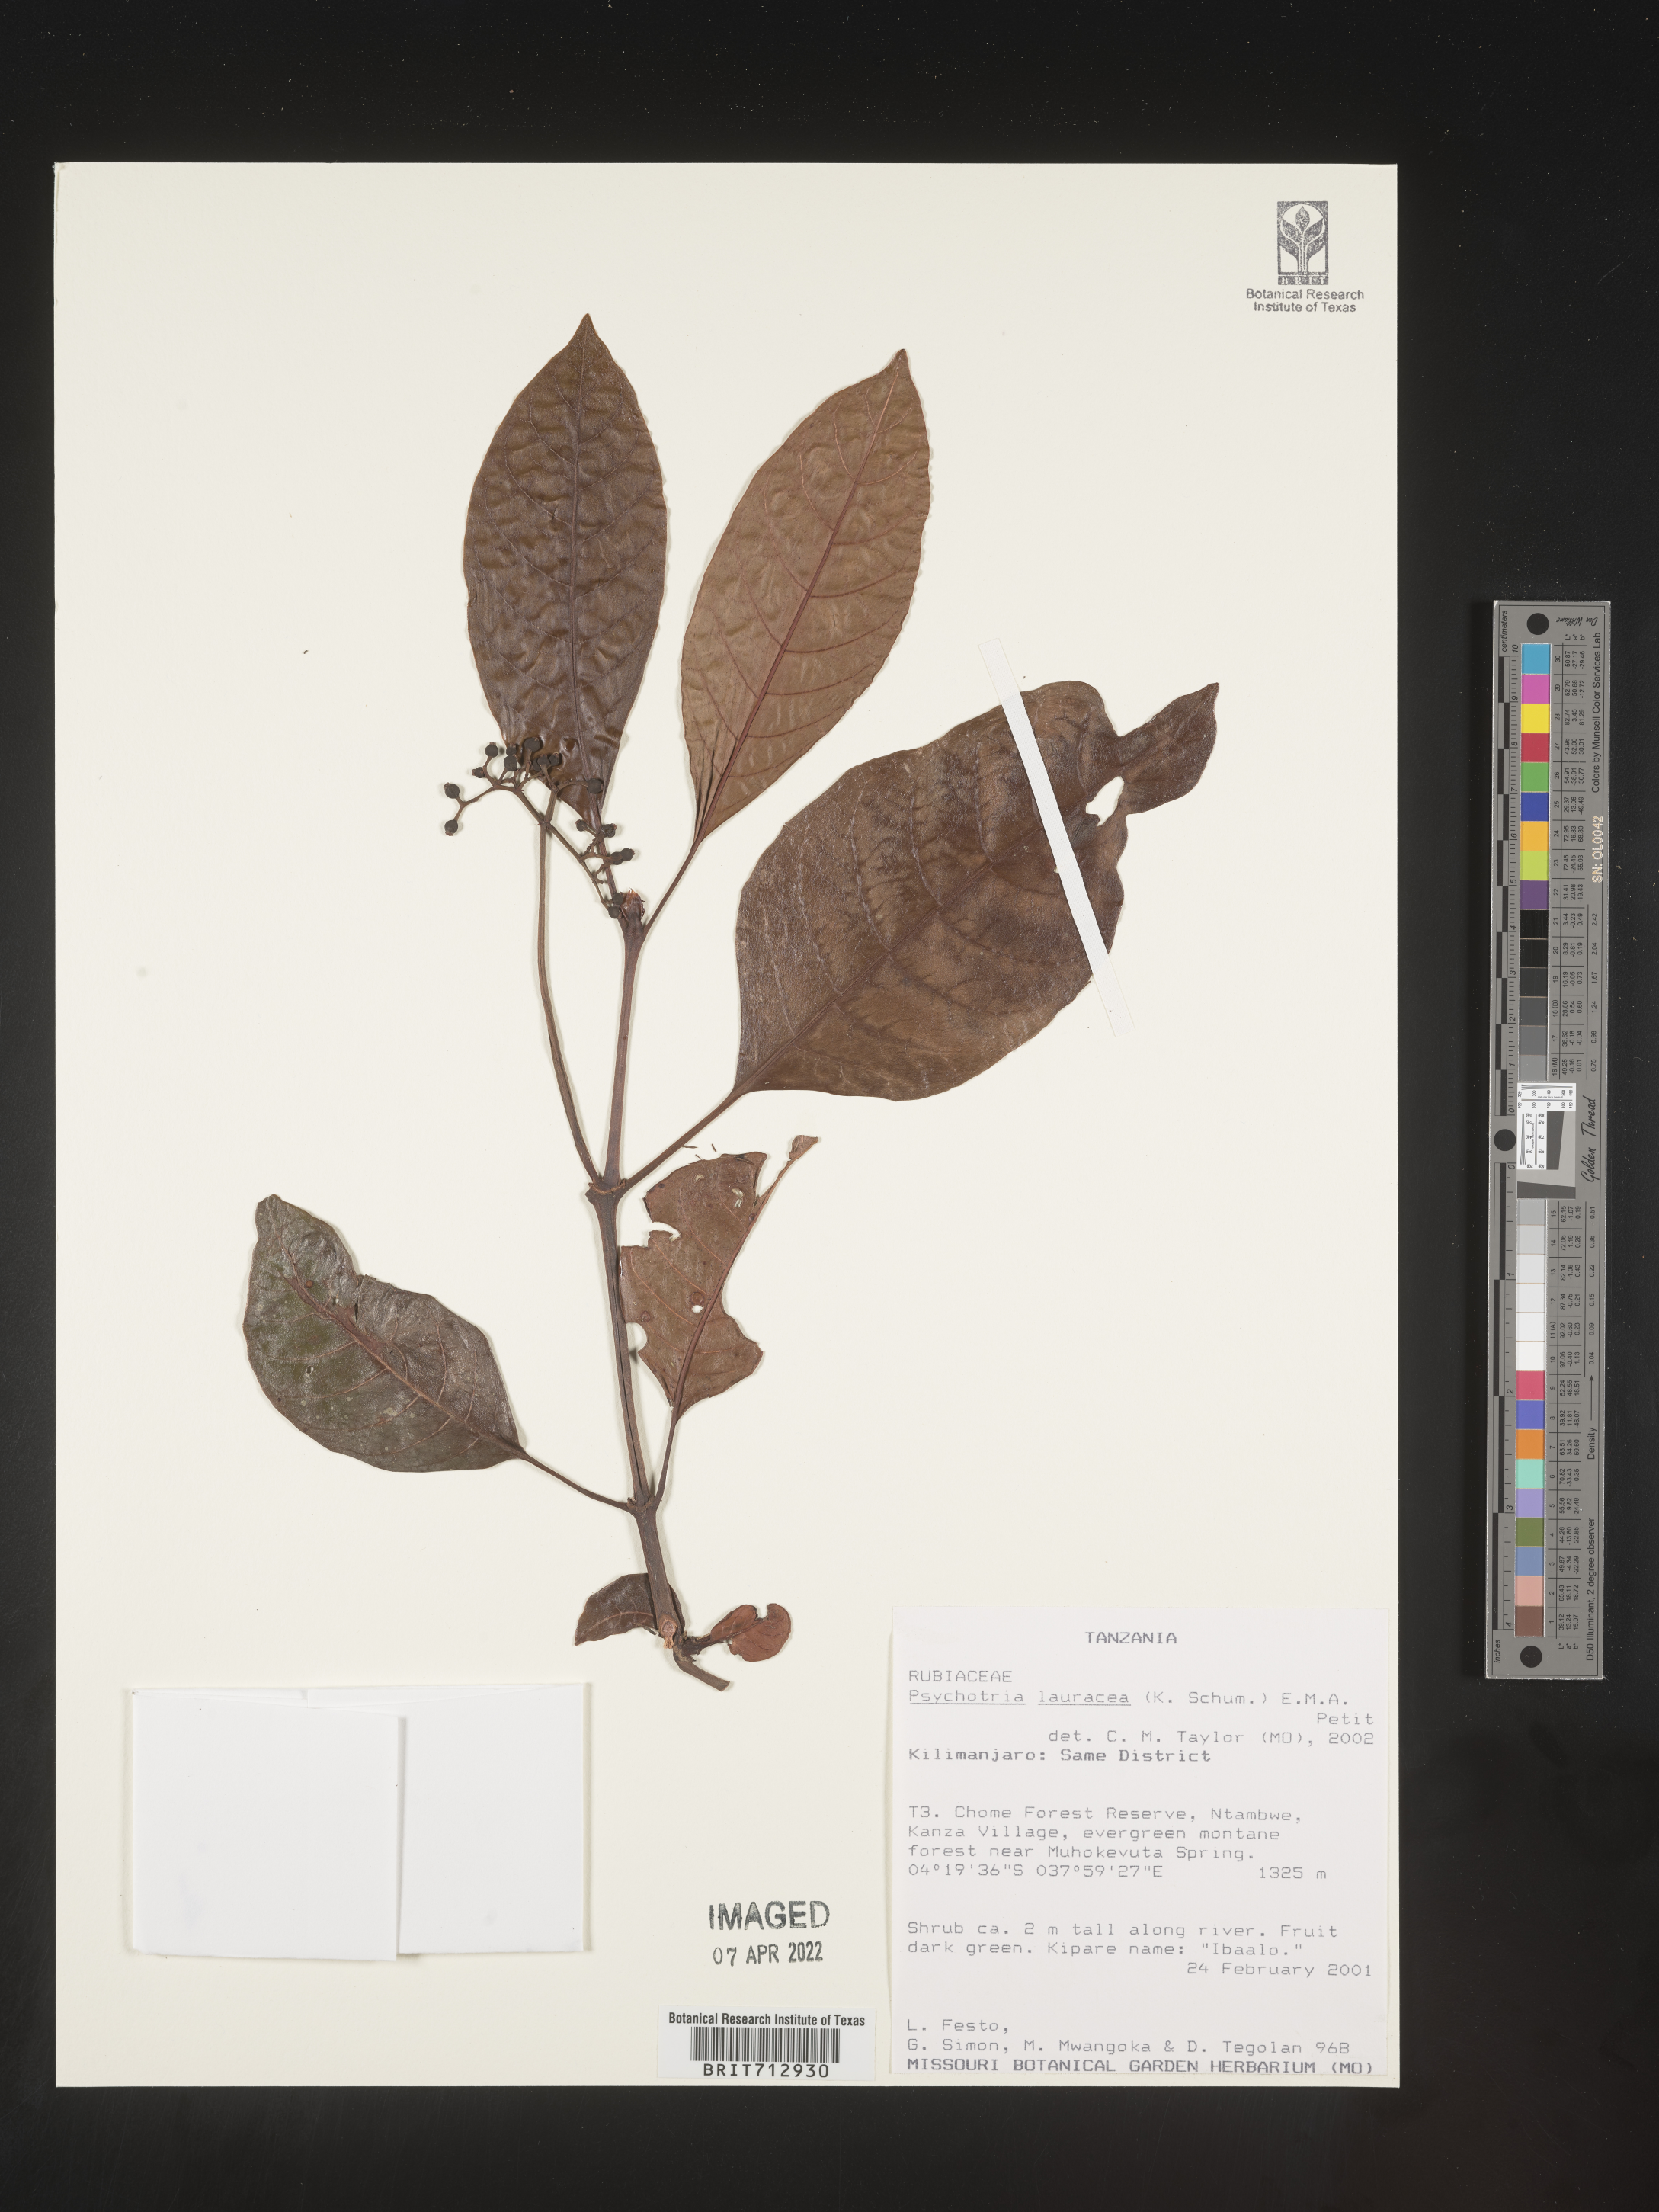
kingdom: Plantae
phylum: Tracheophyta
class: Magnoliopsida
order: Gentianales
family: Rubiaceae
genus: Psychotria
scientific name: Psychotria lauracea
